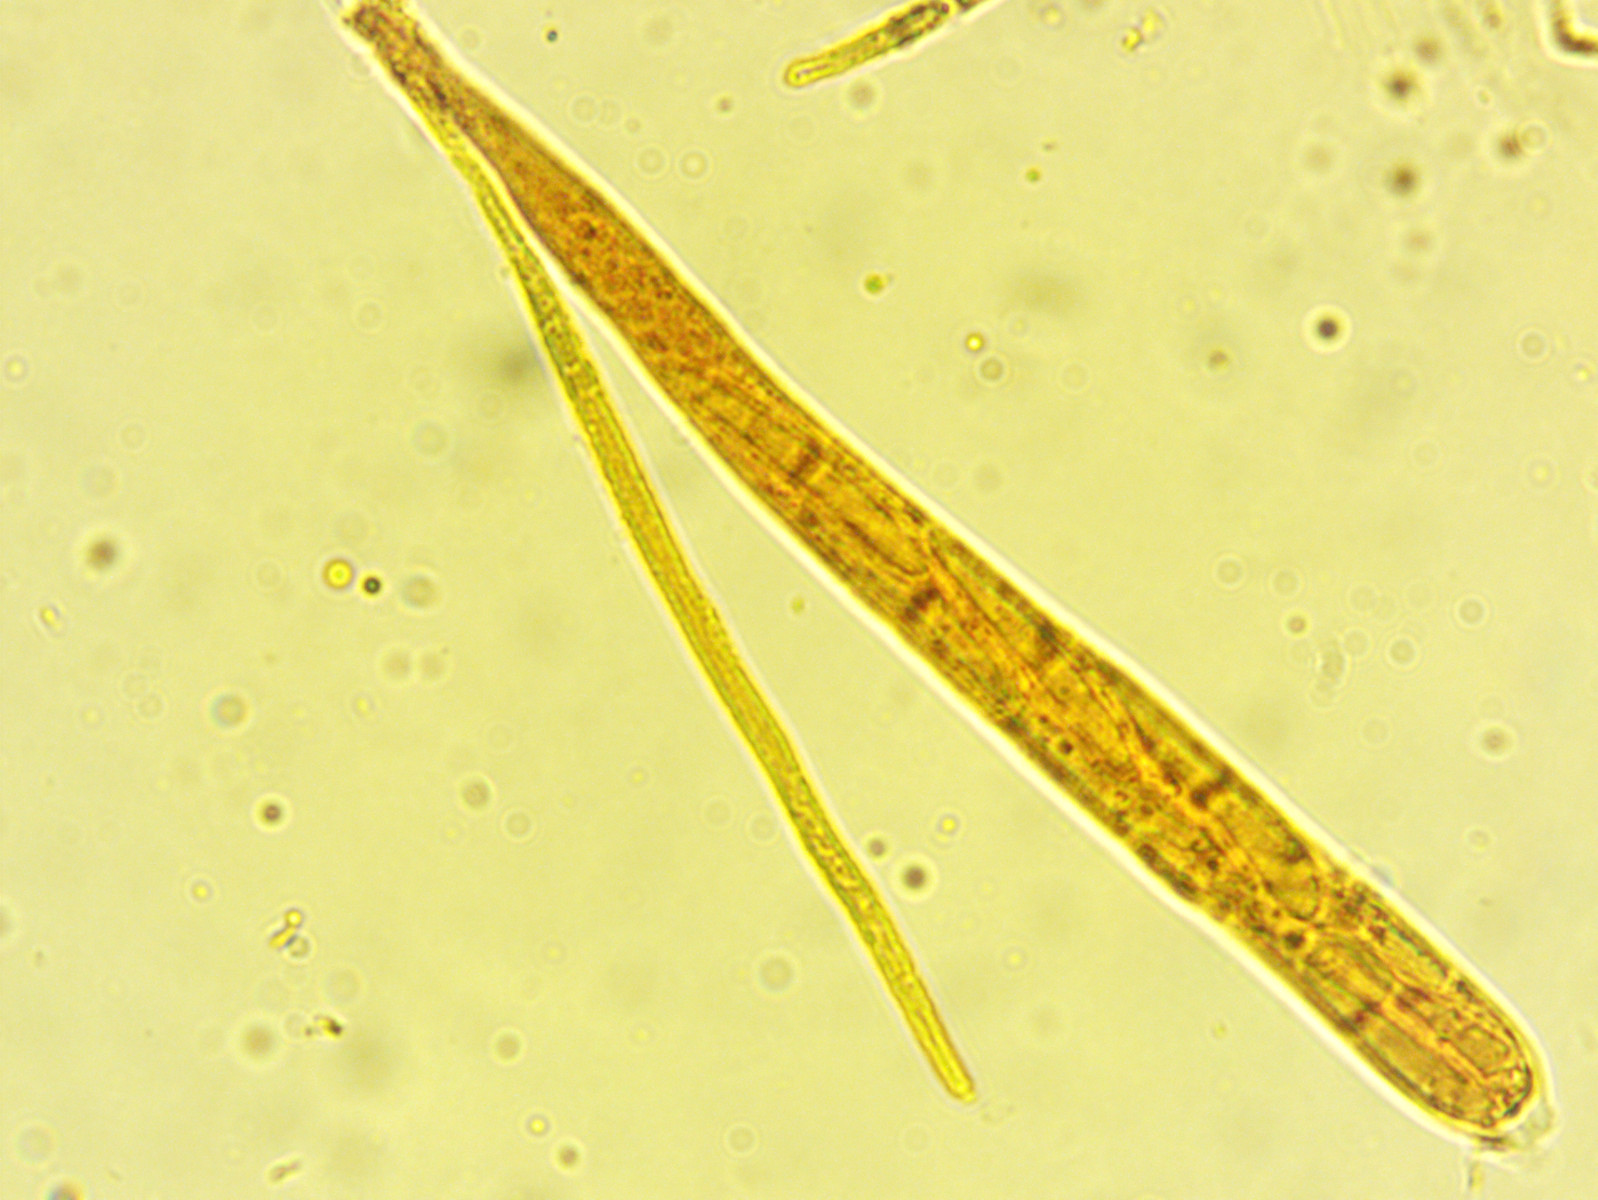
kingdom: Fungi
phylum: Ascomycota
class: Leotiomycetes
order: Helotiales
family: Helotiaceae
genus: Hymenoscyphus
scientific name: Hymenoscyphus scutula
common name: almindelig stilkskive
